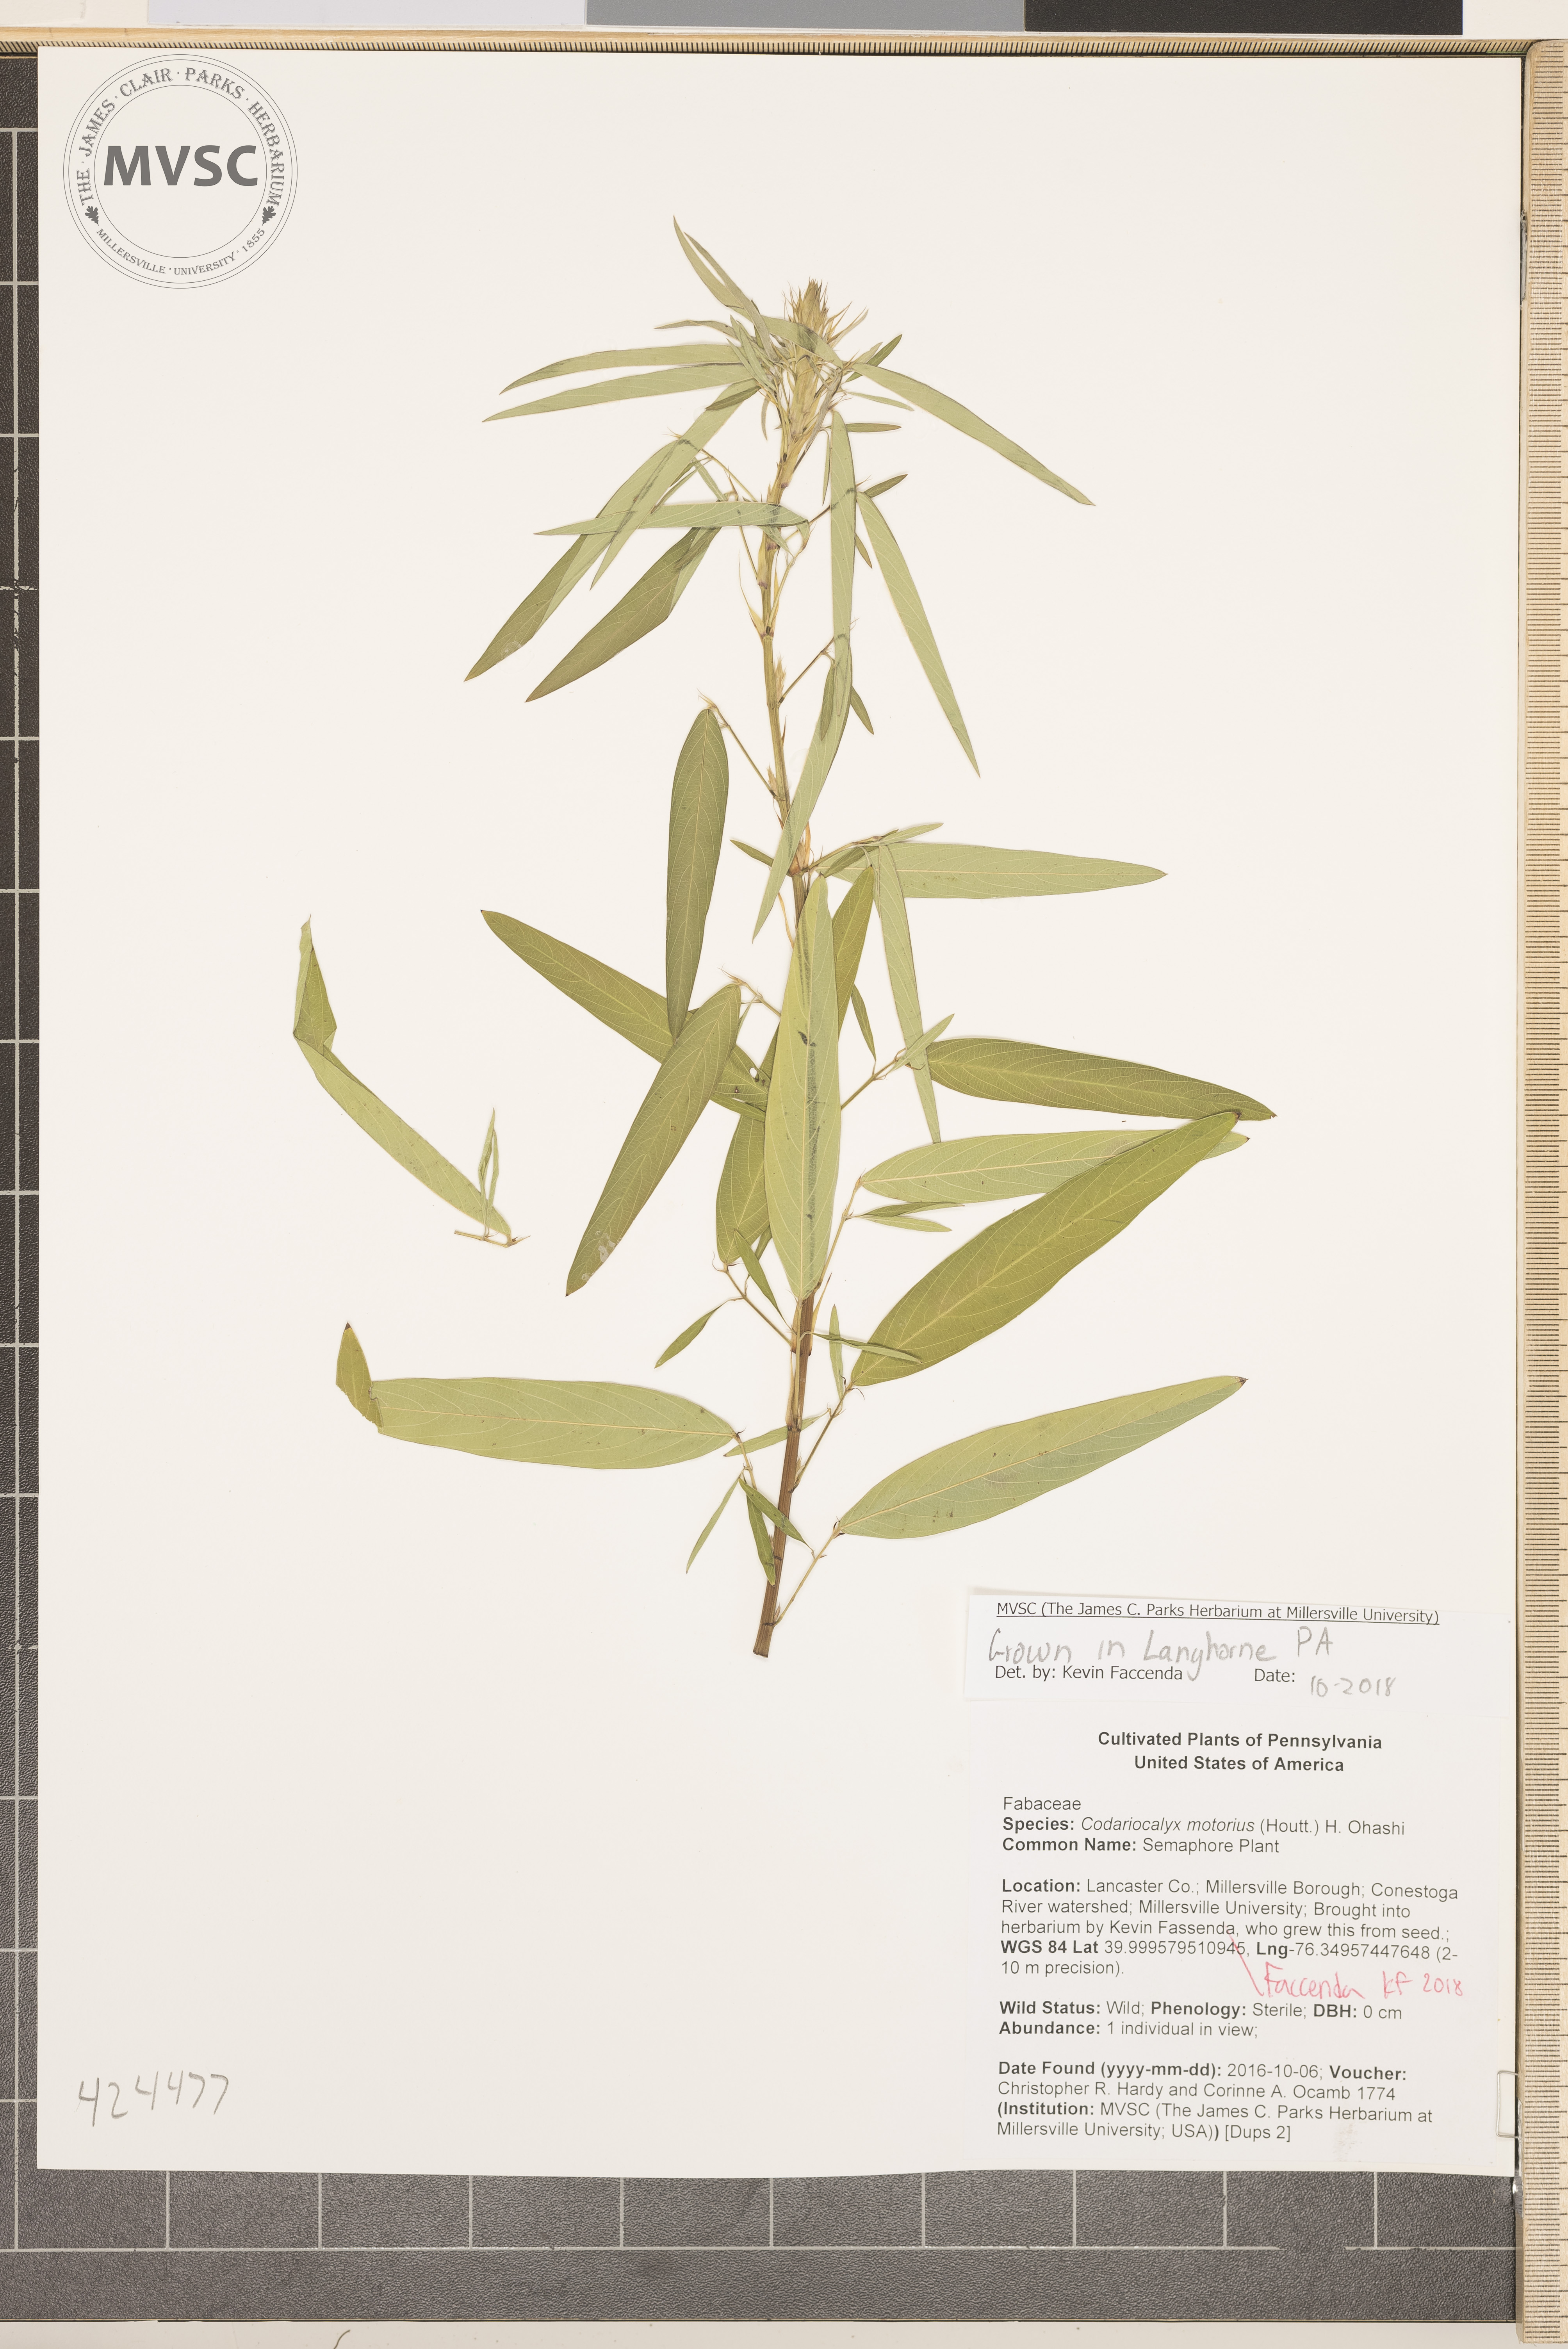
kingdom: Plantae
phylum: Tracheophyta
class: Magnoliopsida
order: Fabales
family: Fabaceae
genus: Codariocalyx
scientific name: Codariocalyx motorius
